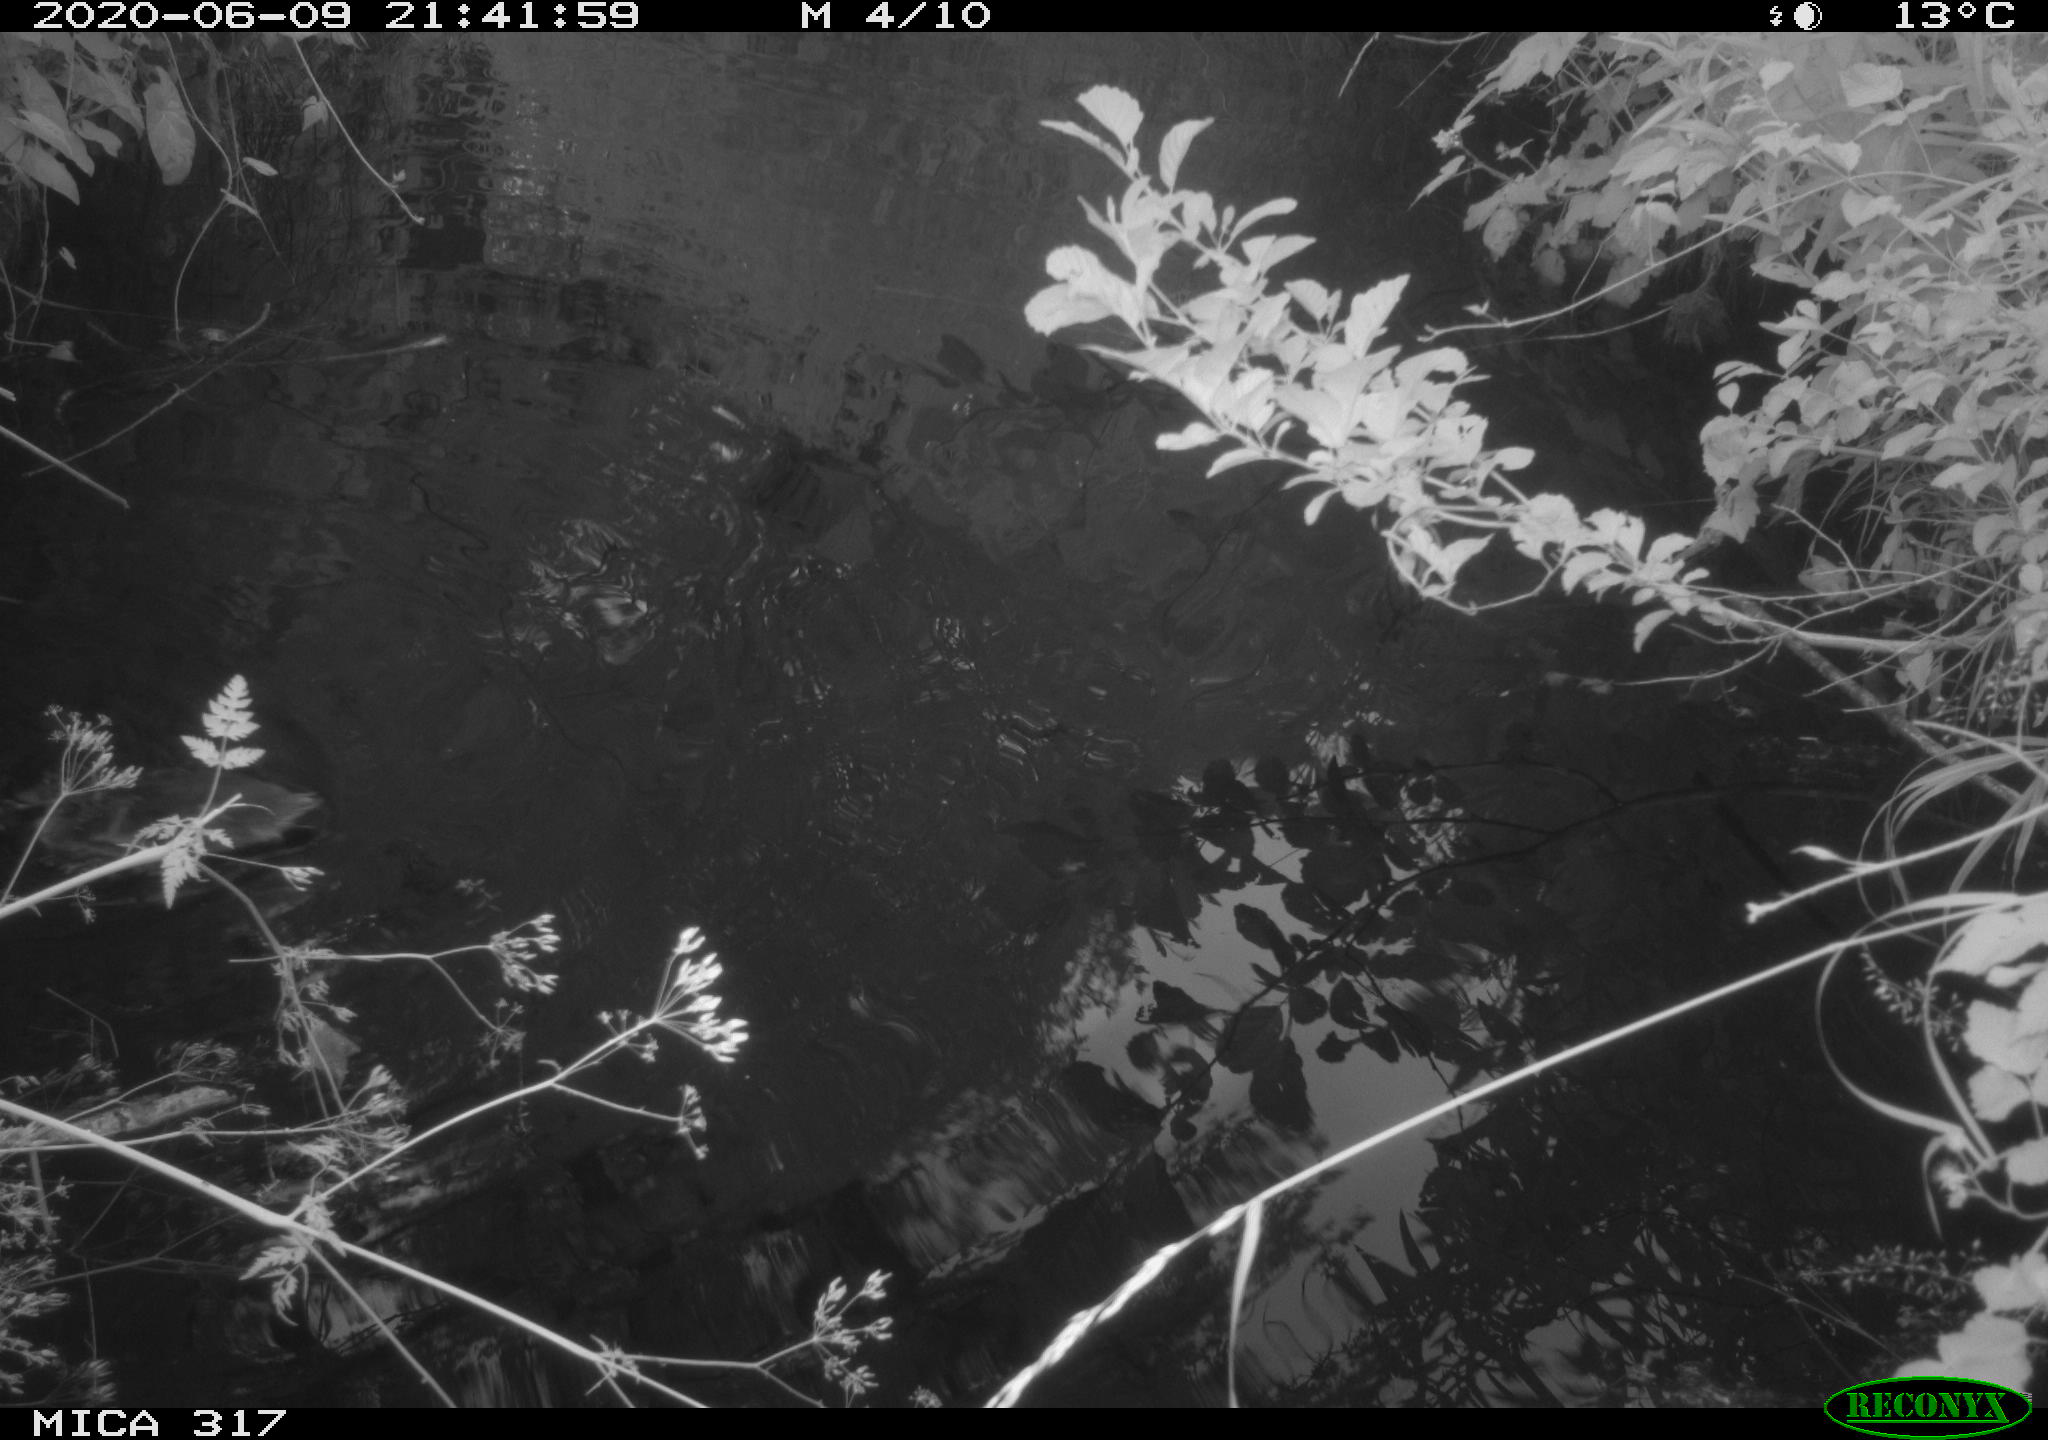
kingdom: Animalia
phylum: Chordata
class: Aves
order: Anseriformes
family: Anatidae
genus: Anas
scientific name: Anas platyrhynchos
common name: Mallard
